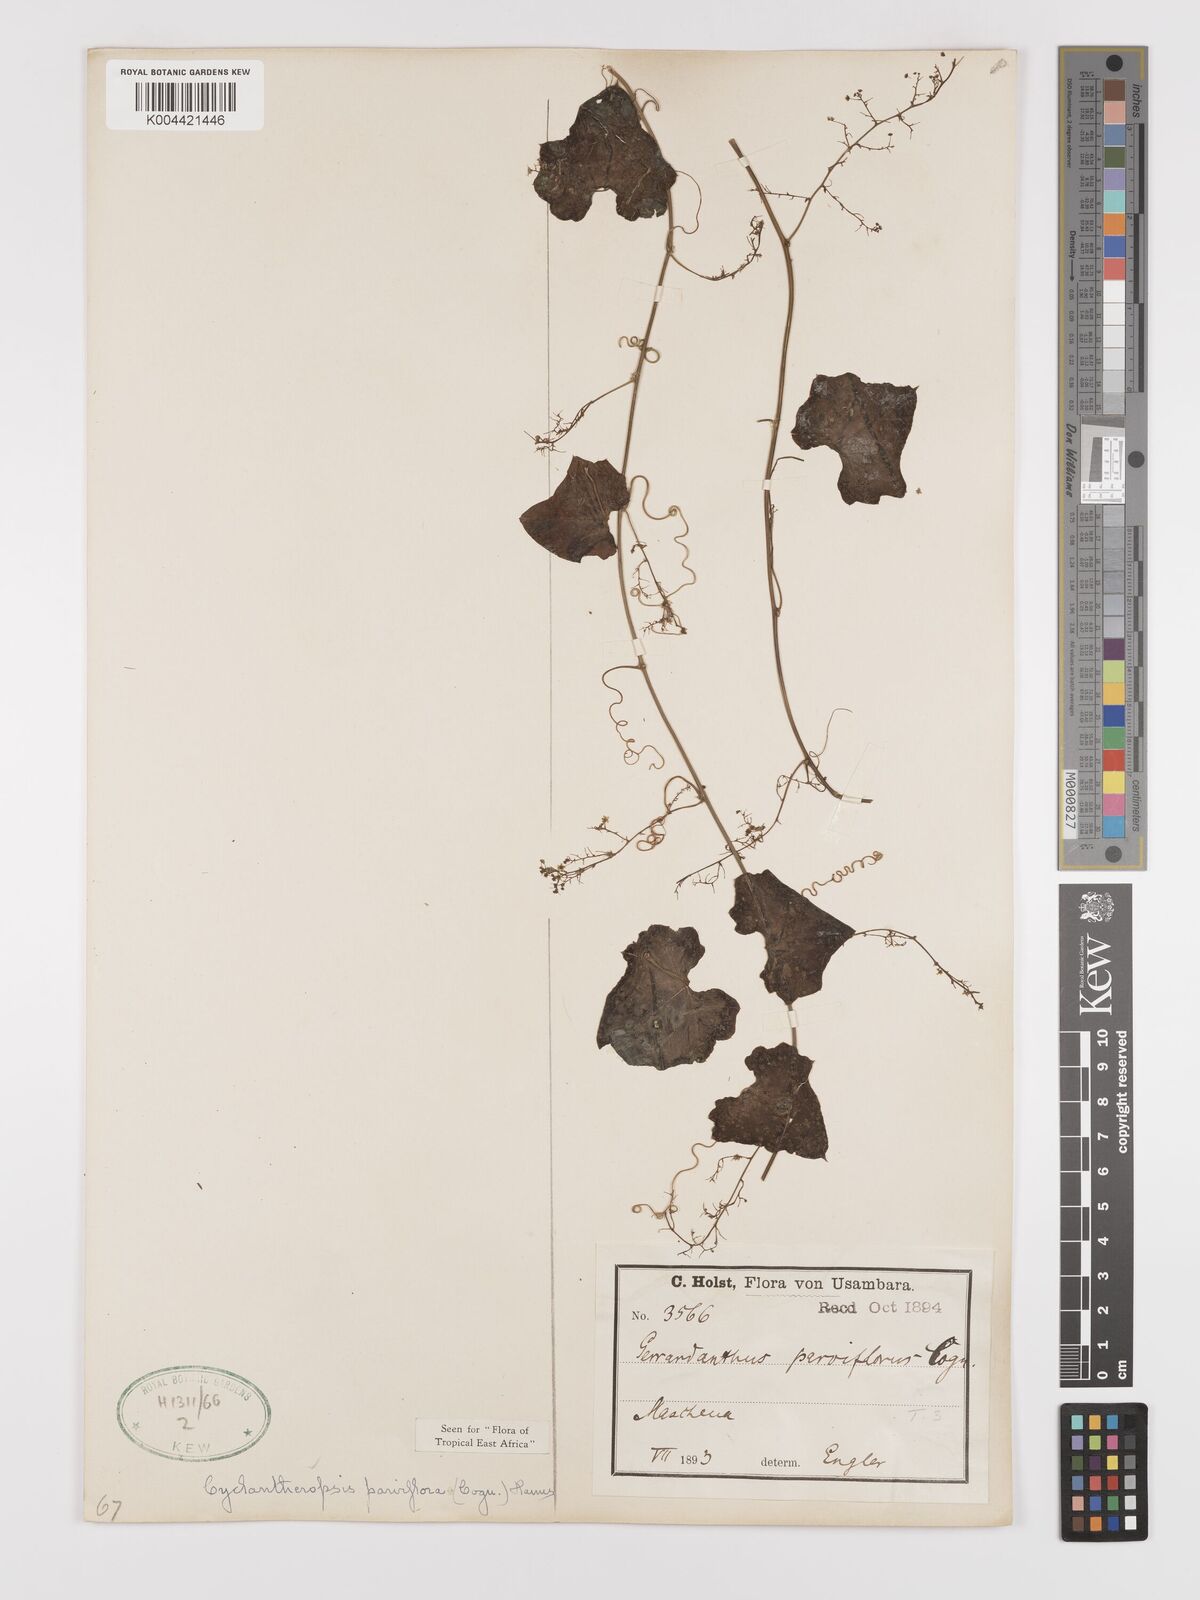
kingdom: Plantae
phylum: Tracheophyta
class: Magnoliopsida
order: Cucurbitales
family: Cucurbitaceae
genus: Cyclantheropsis
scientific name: Cyclantheropsis parviflora
